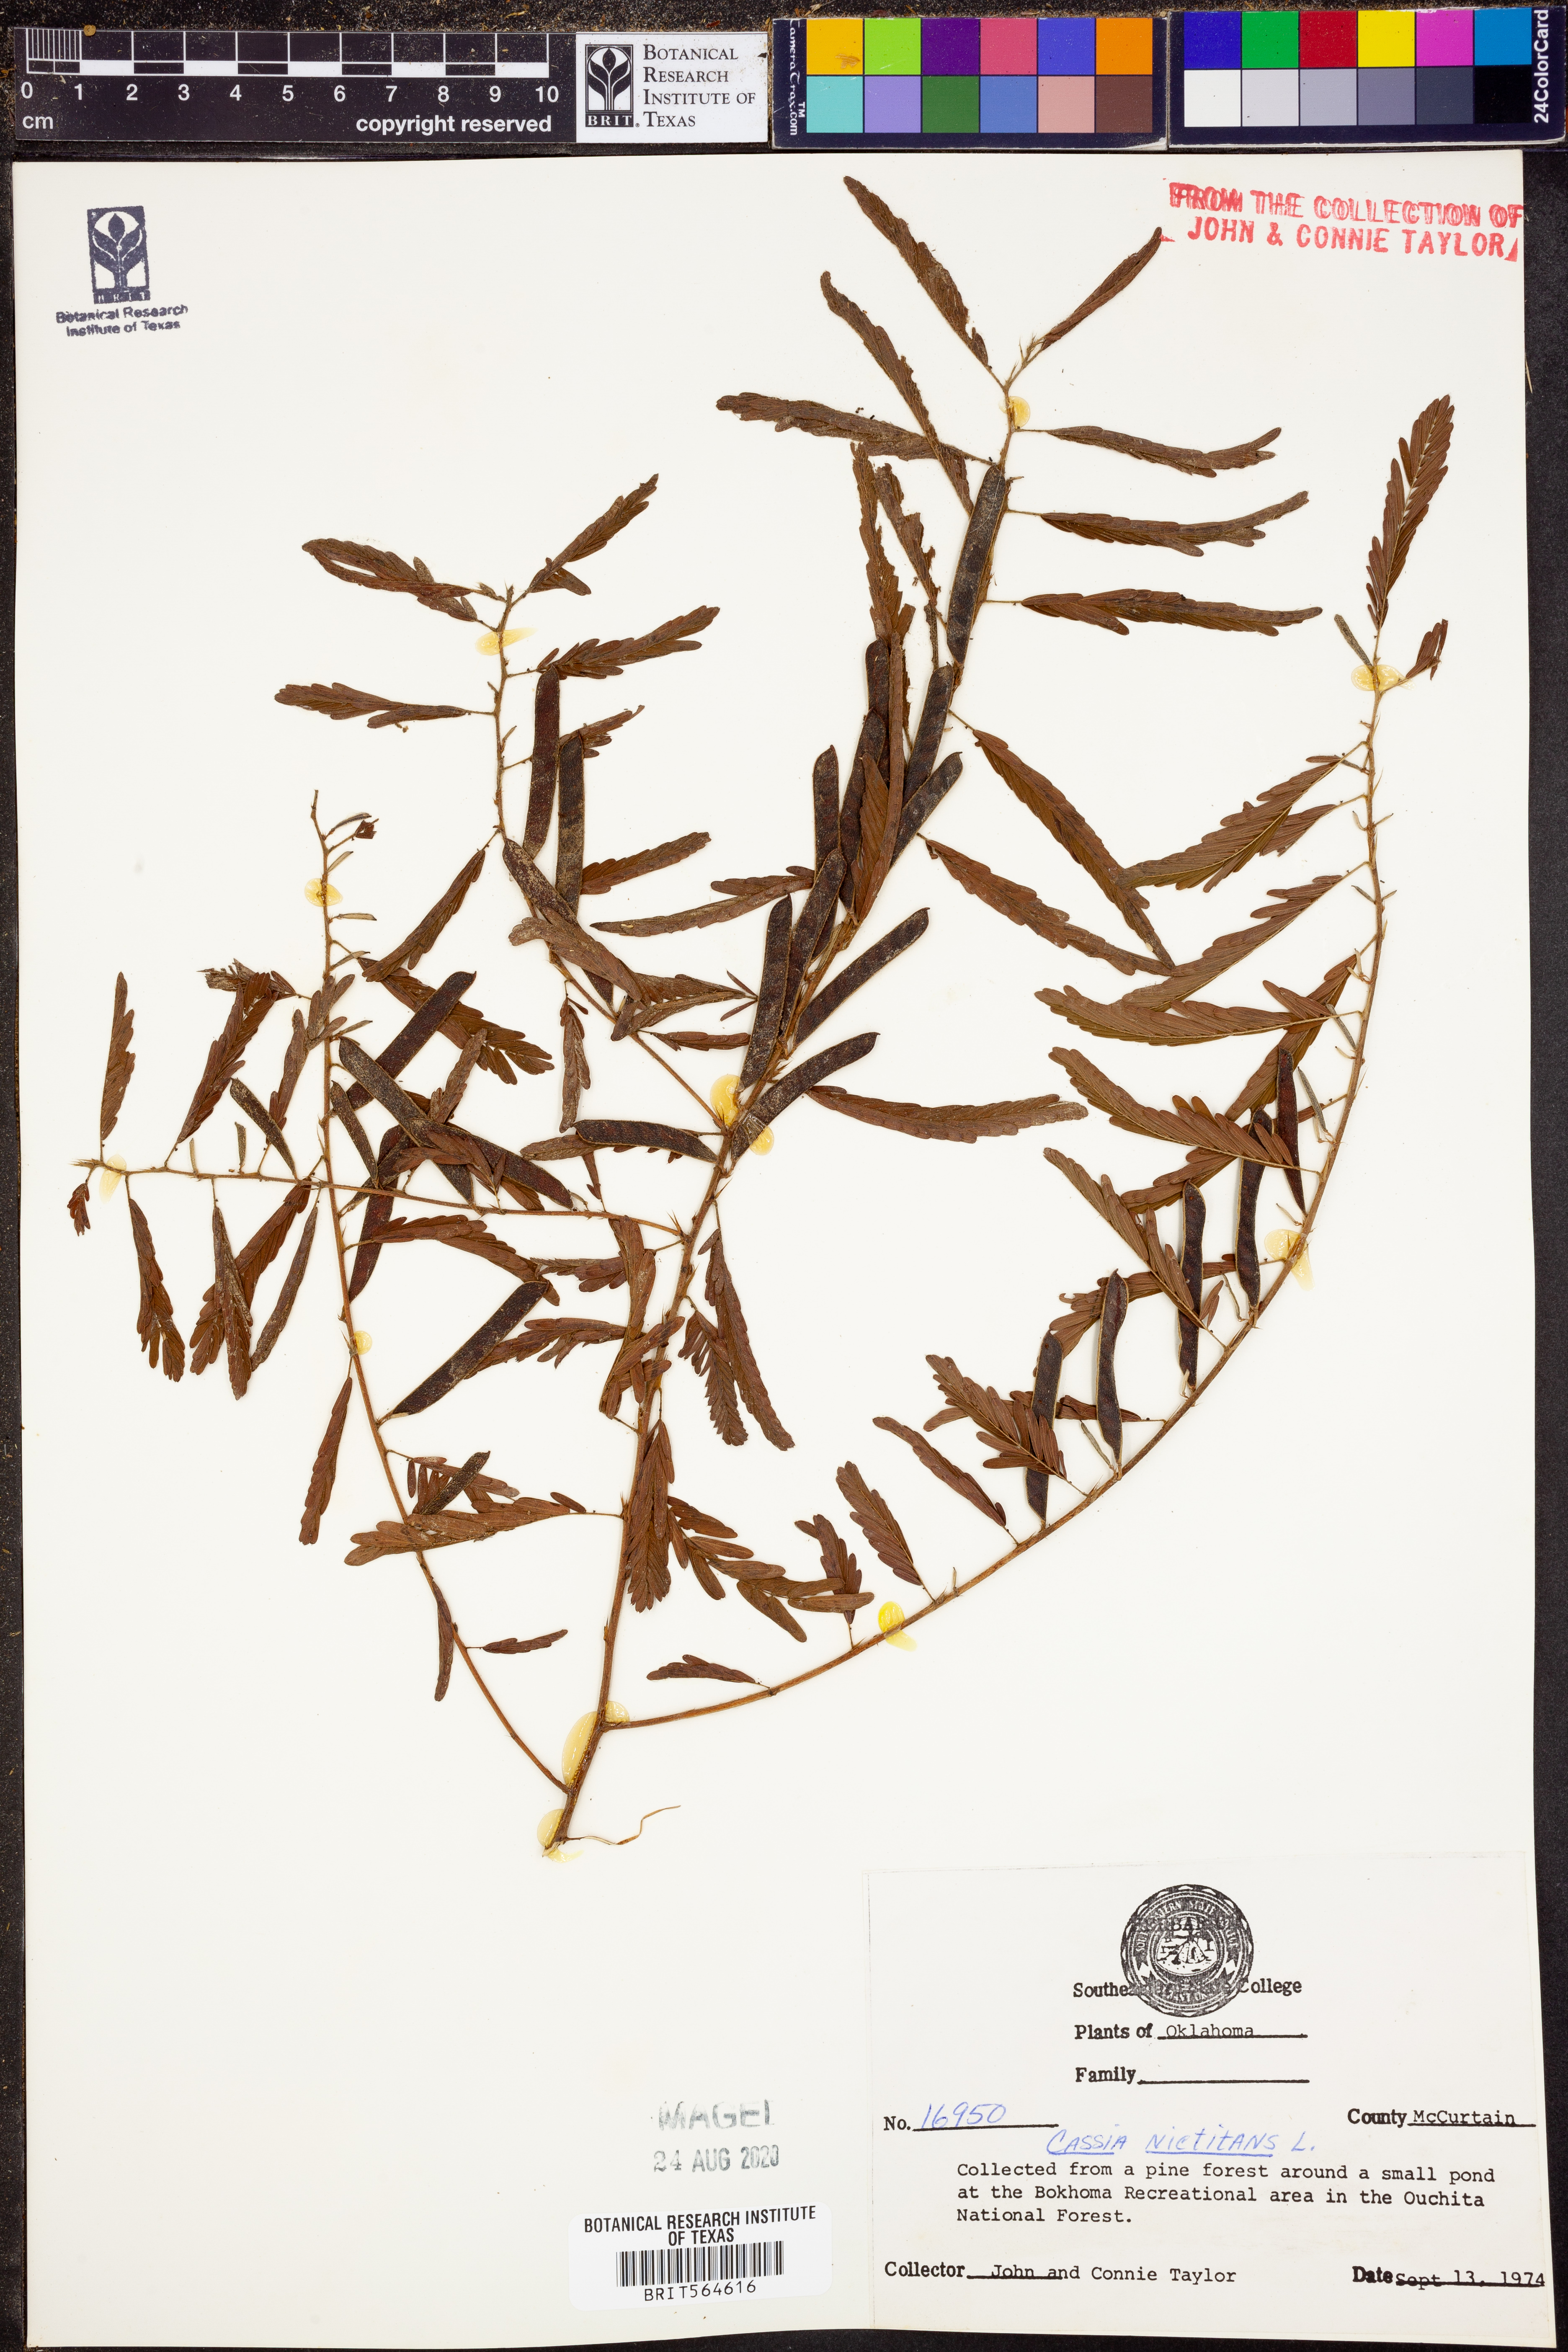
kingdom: Plantae
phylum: Tracheophyta
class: Magnoliopsida
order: Fabales
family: Fabaceae
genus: Chamaecrista
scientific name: Chamaecrista nictitans
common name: Sensitive cassia
